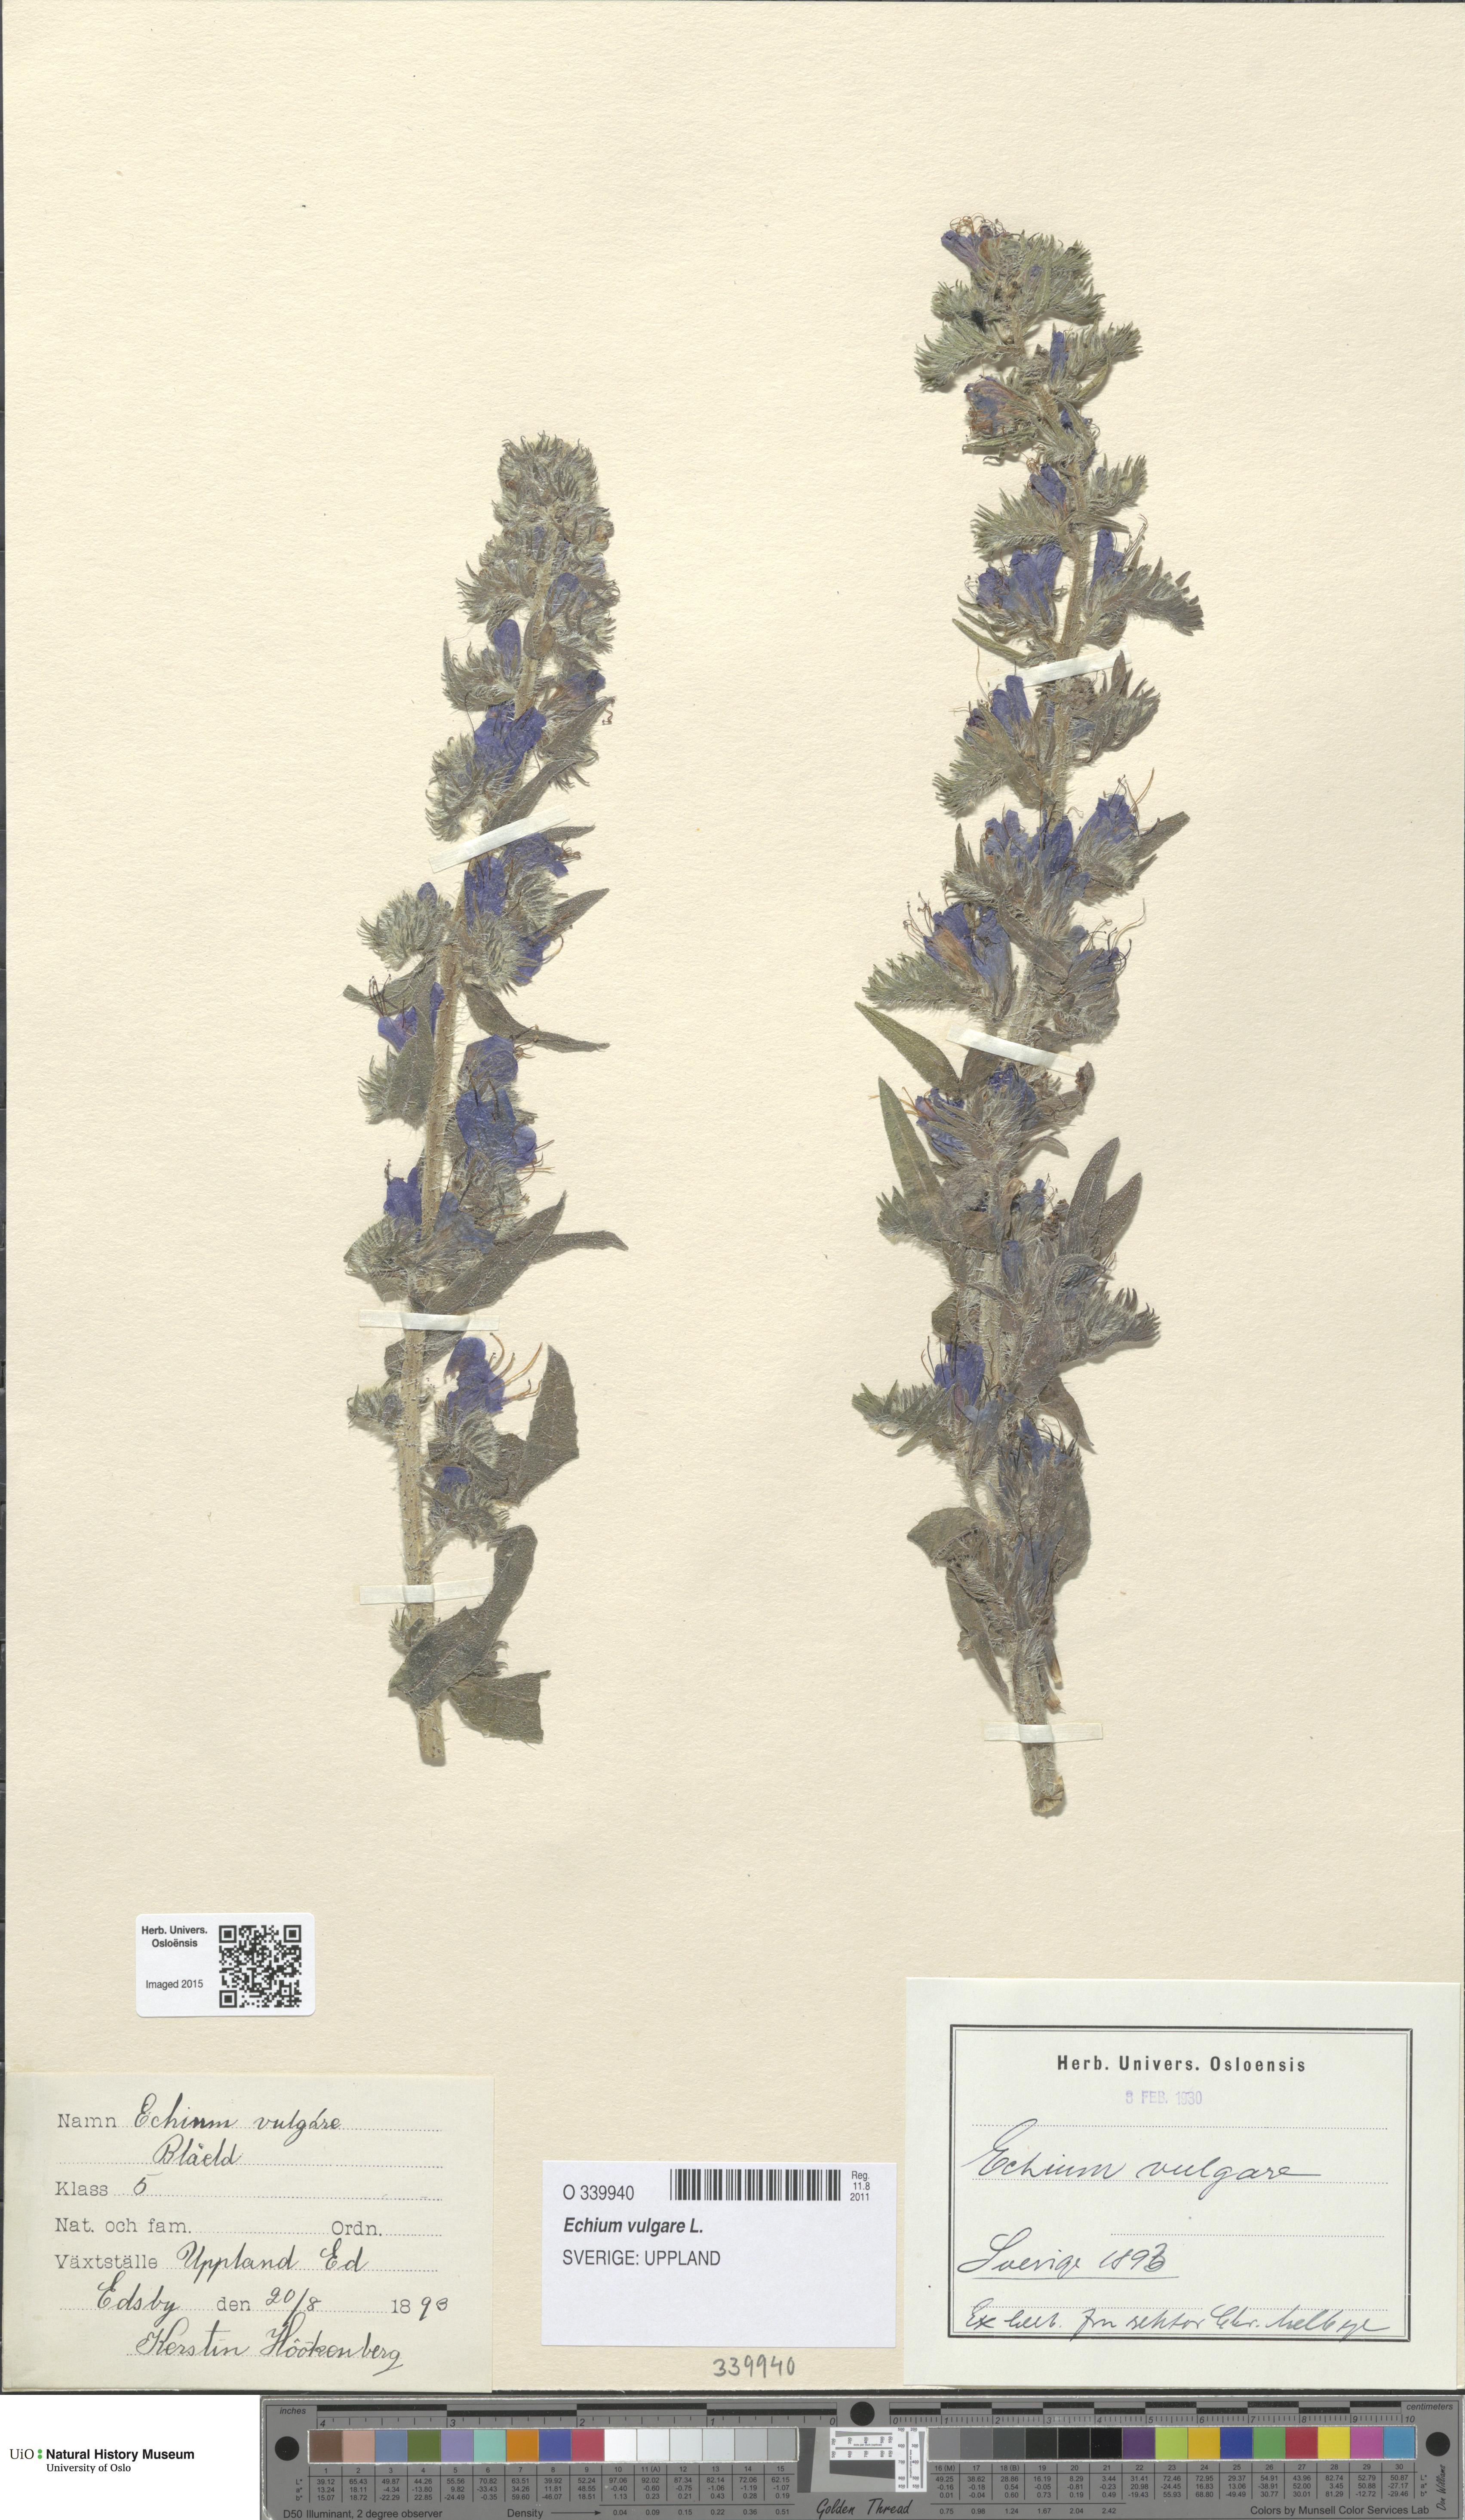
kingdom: Plantae
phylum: Tracheophyta
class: Magnoliopsida
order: Boraginales
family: Boraginaceae
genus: Echium
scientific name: Echium vulgare
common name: Common viper's bugloss
